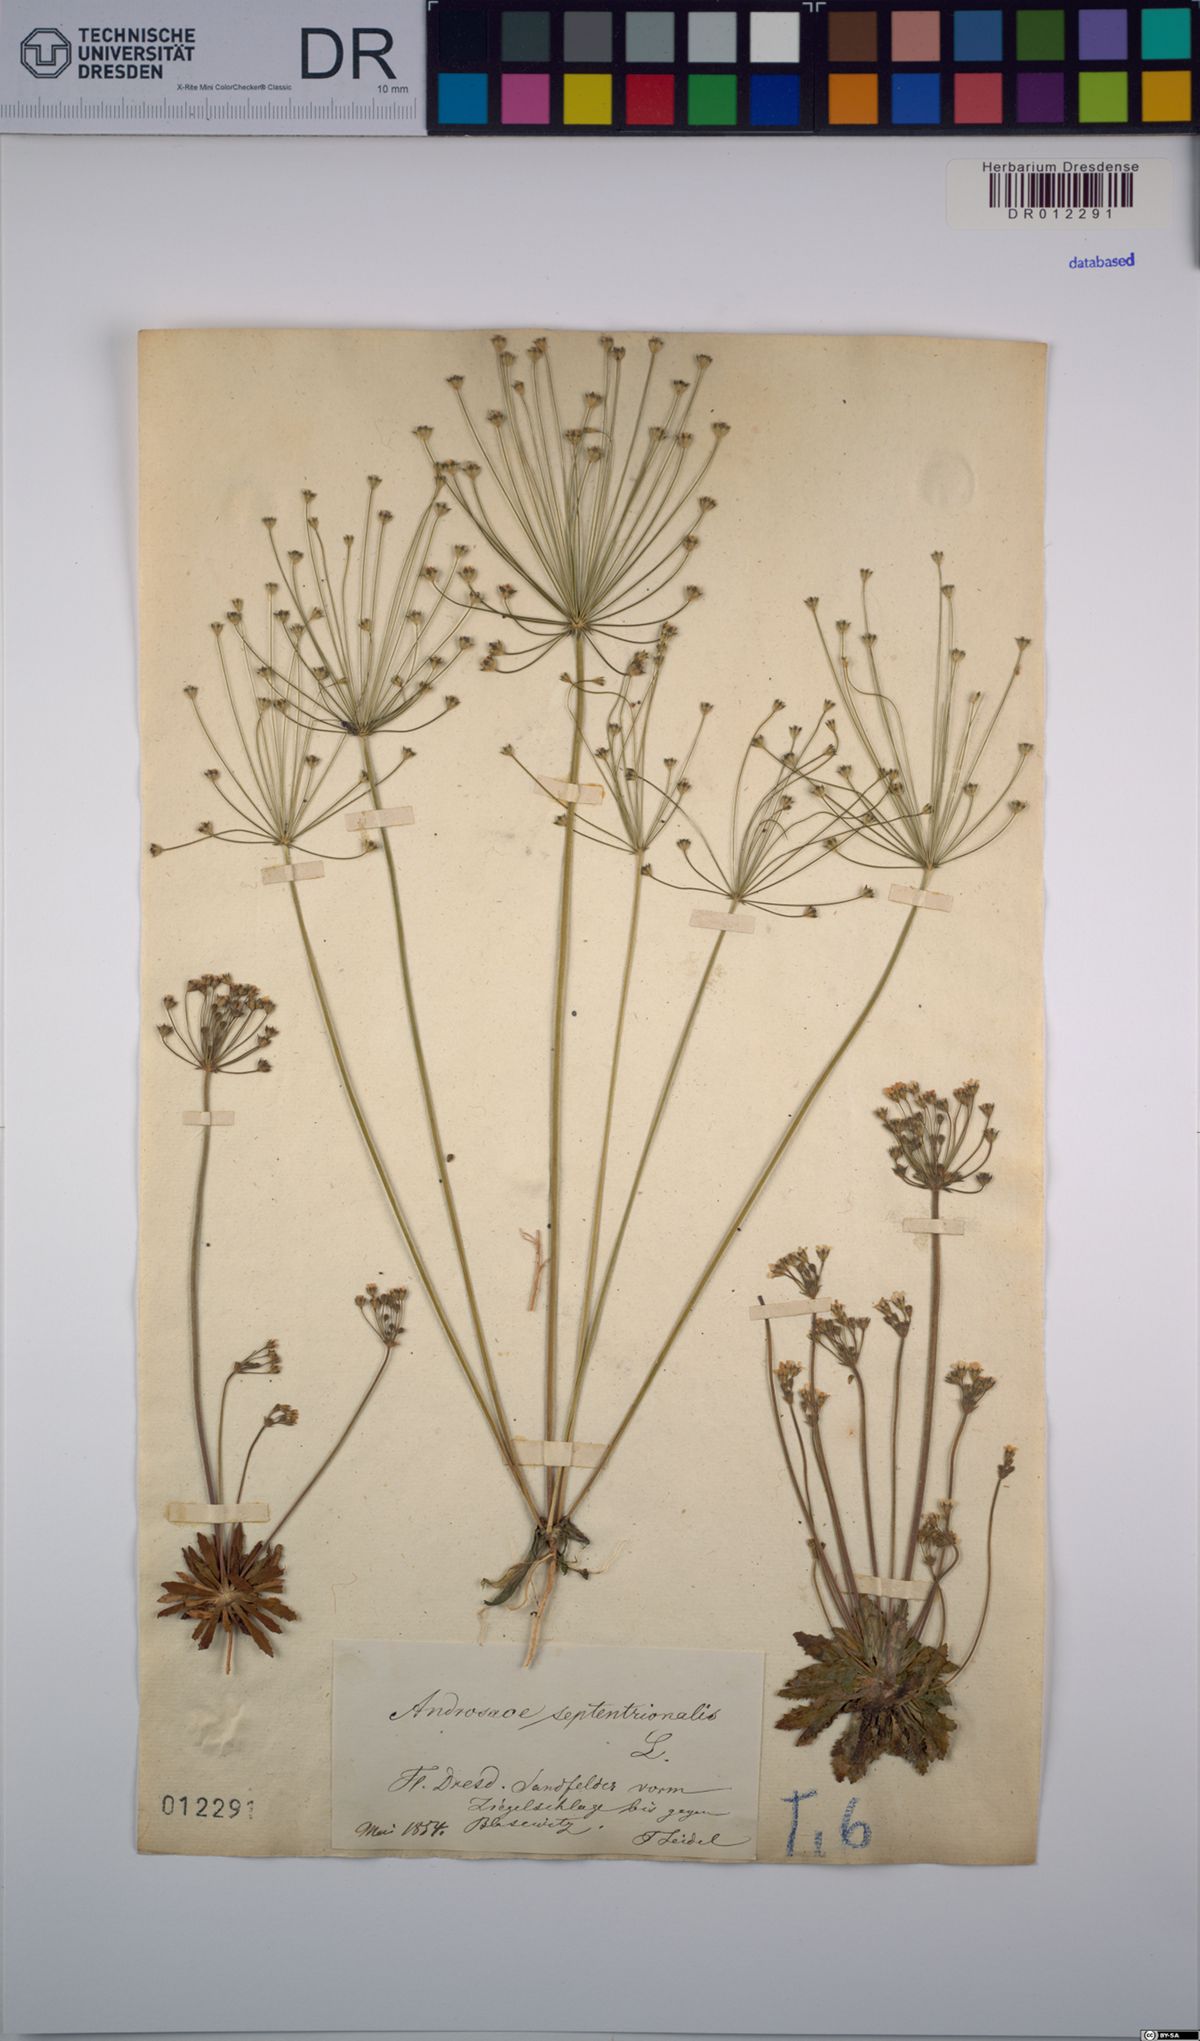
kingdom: Plantae
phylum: Tracheophyta
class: Magnoliopsida
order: Ericales
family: Primulaceae
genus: Androsace
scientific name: Androsace septentrionalis
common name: Hairy northern fairy-candelabra
